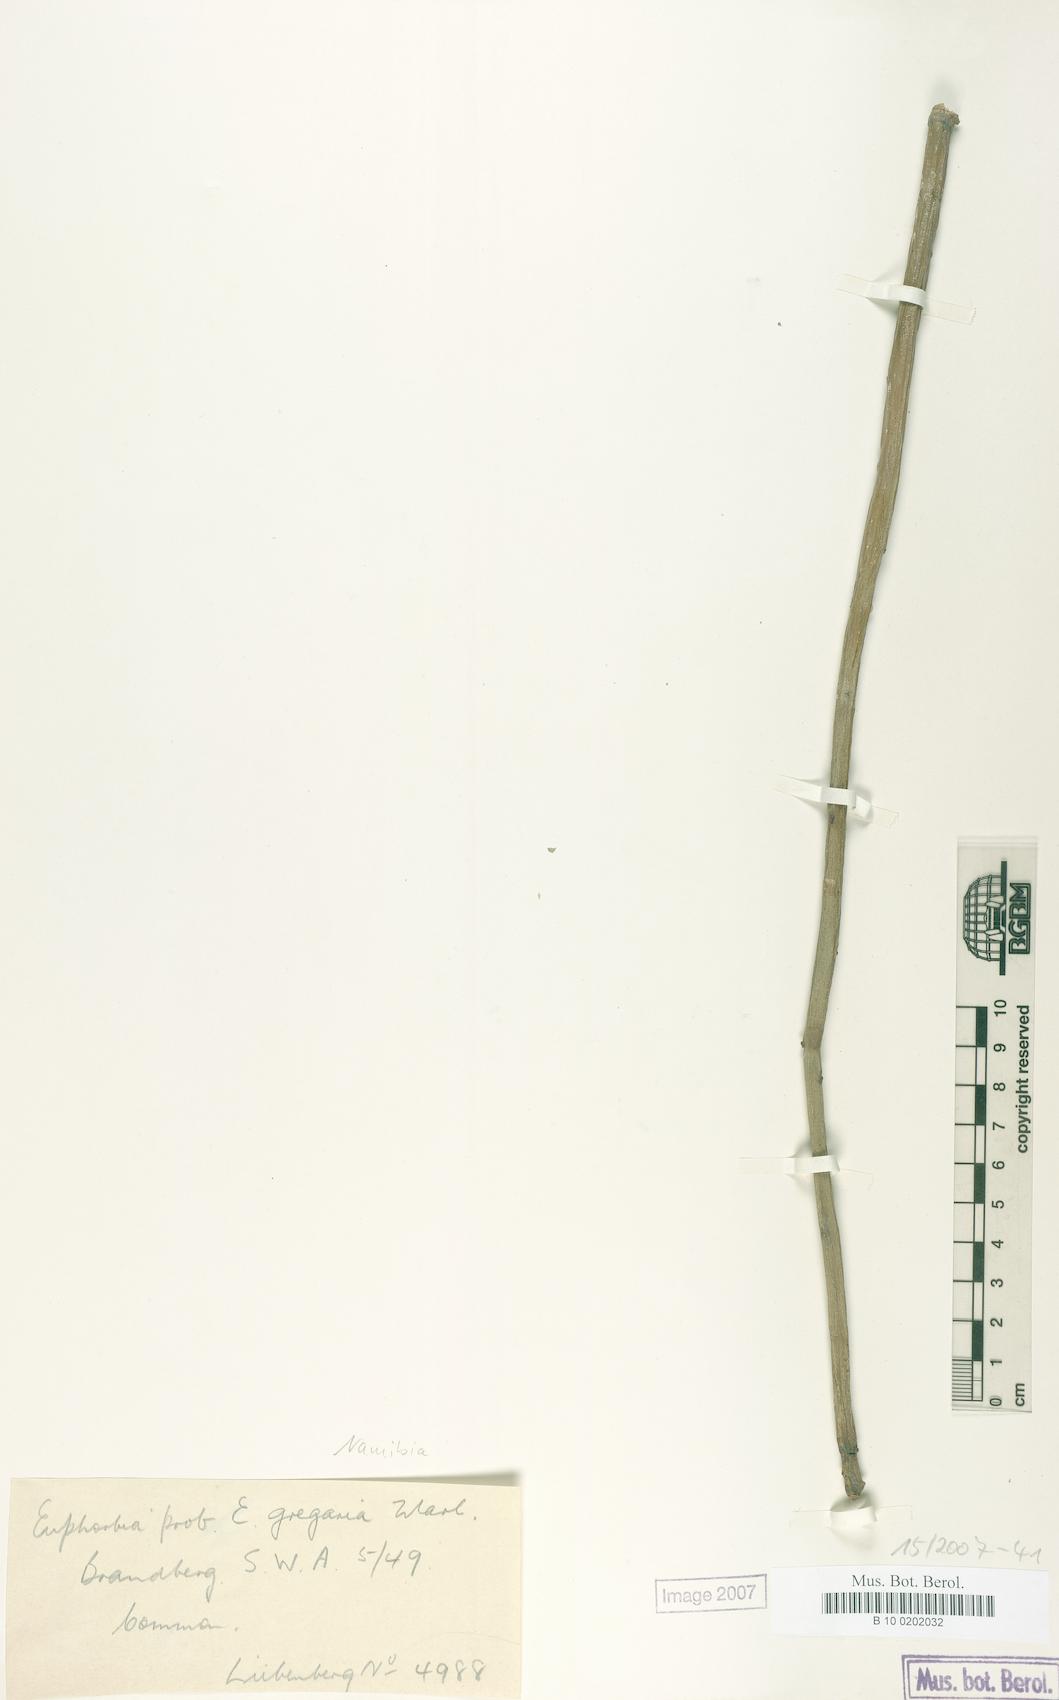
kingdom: Plantae
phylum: Tracheophyta
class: Magnoliopsida
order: Malpighiales
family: Euphorbiaceae
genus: Euphorbia
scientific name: Euphorbia gregaria
